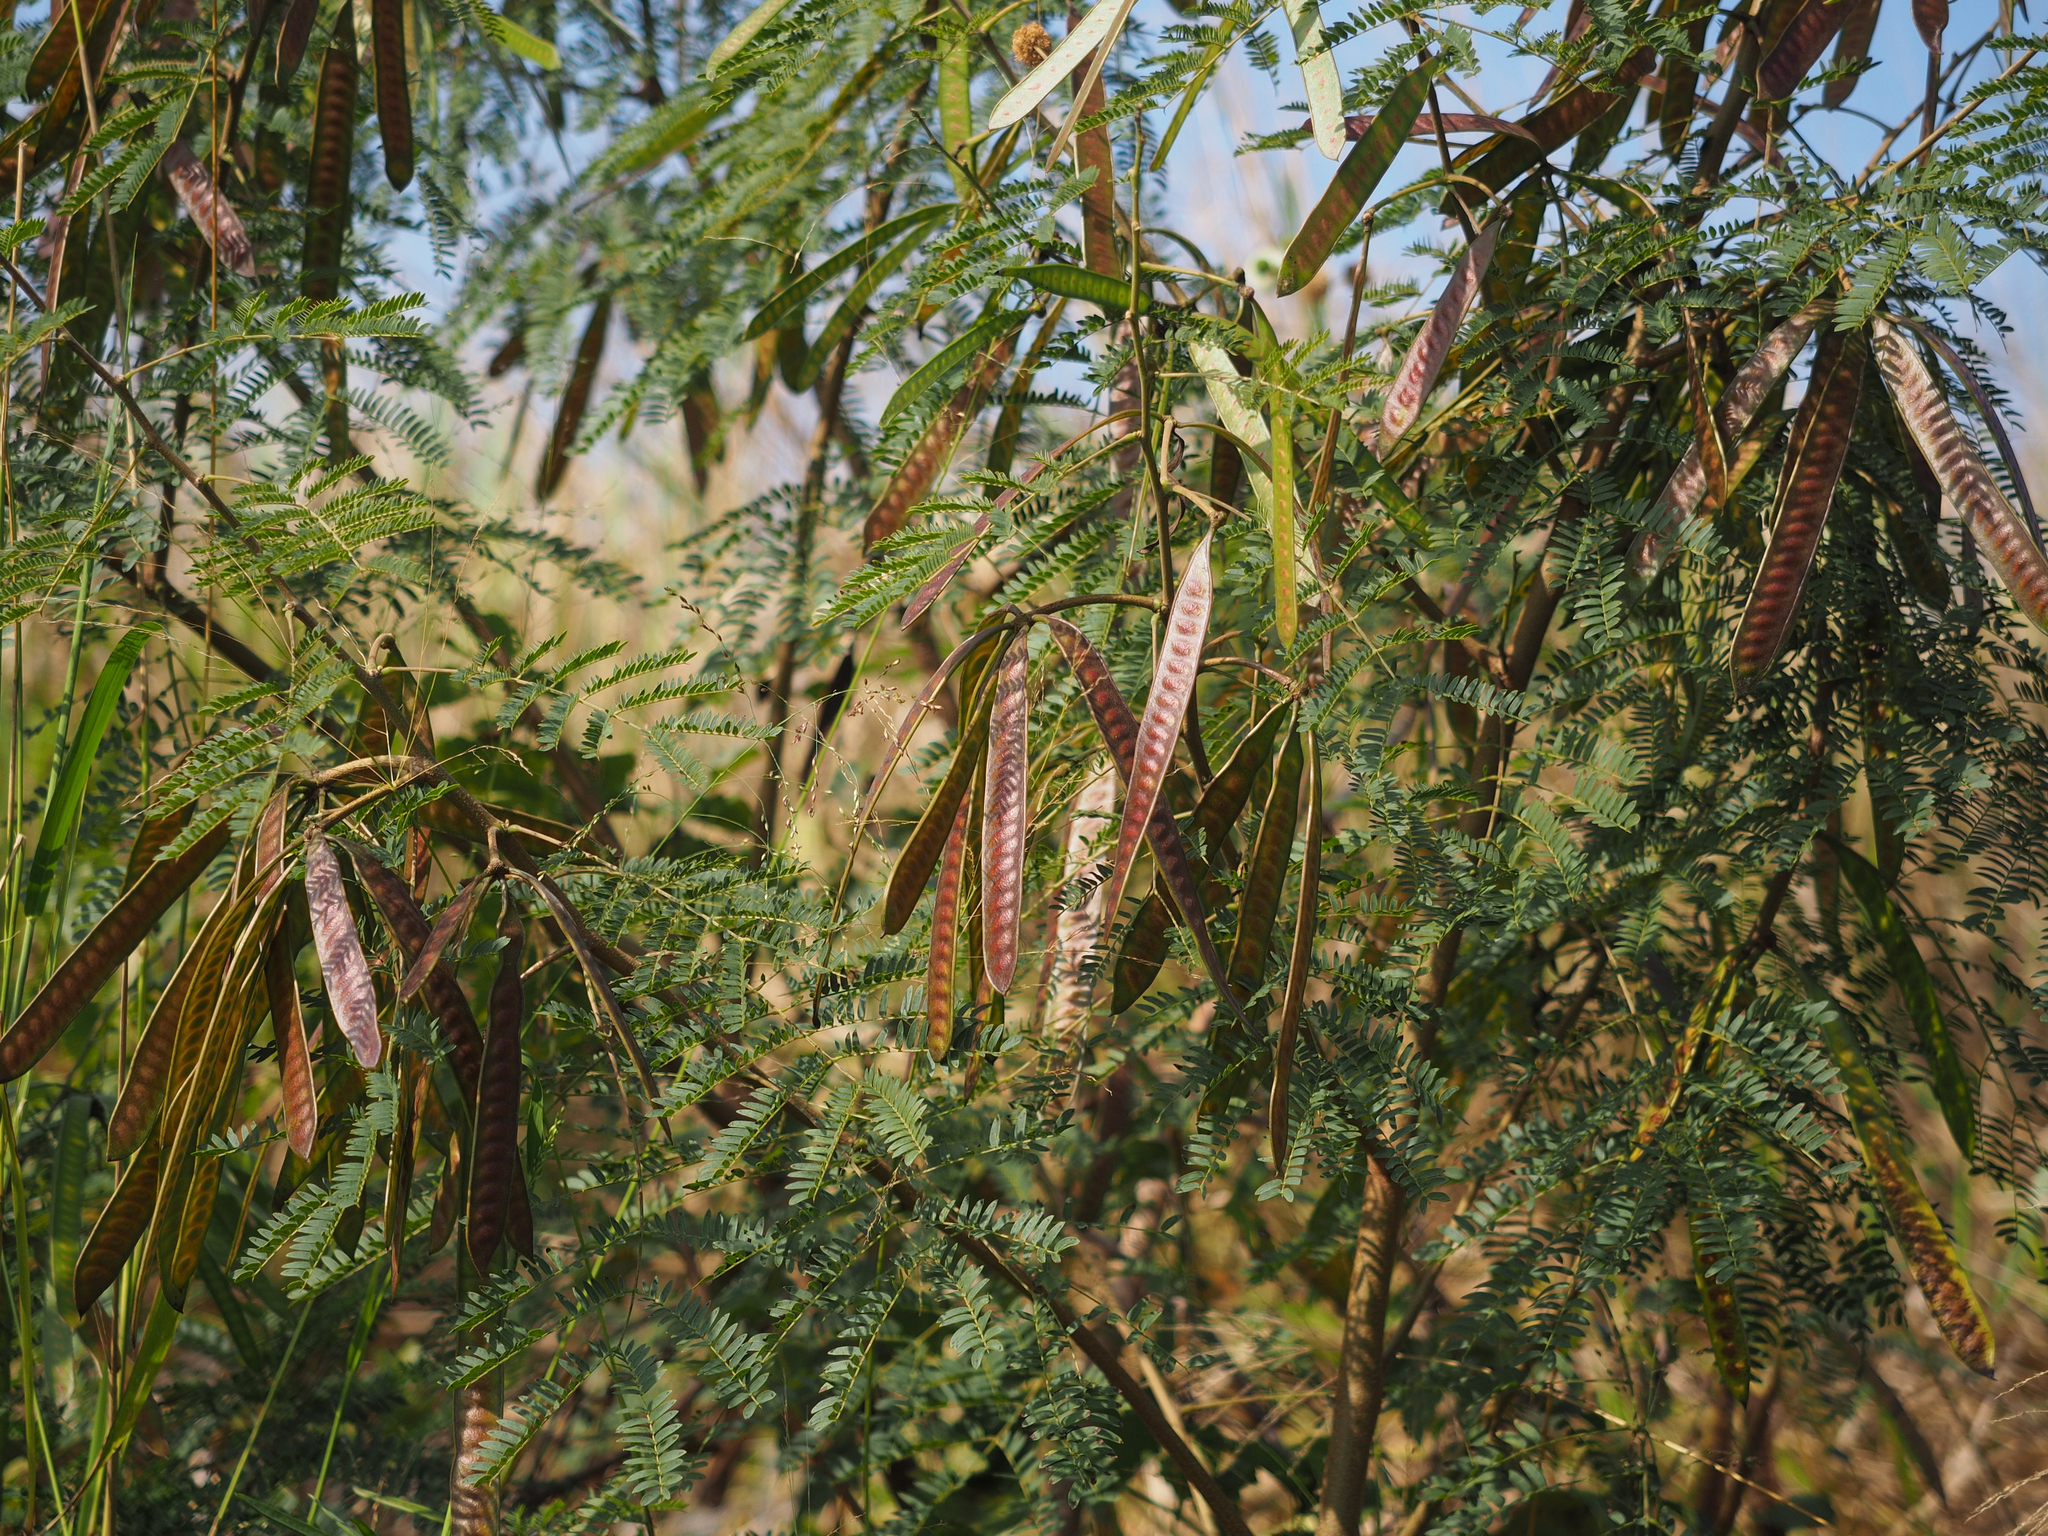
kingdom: Plantae
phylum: Tracheophyta
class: Magnoliopsida
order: Fabales
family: Fabaceae
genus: Leucaena
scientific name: Leucaena leucocephala
